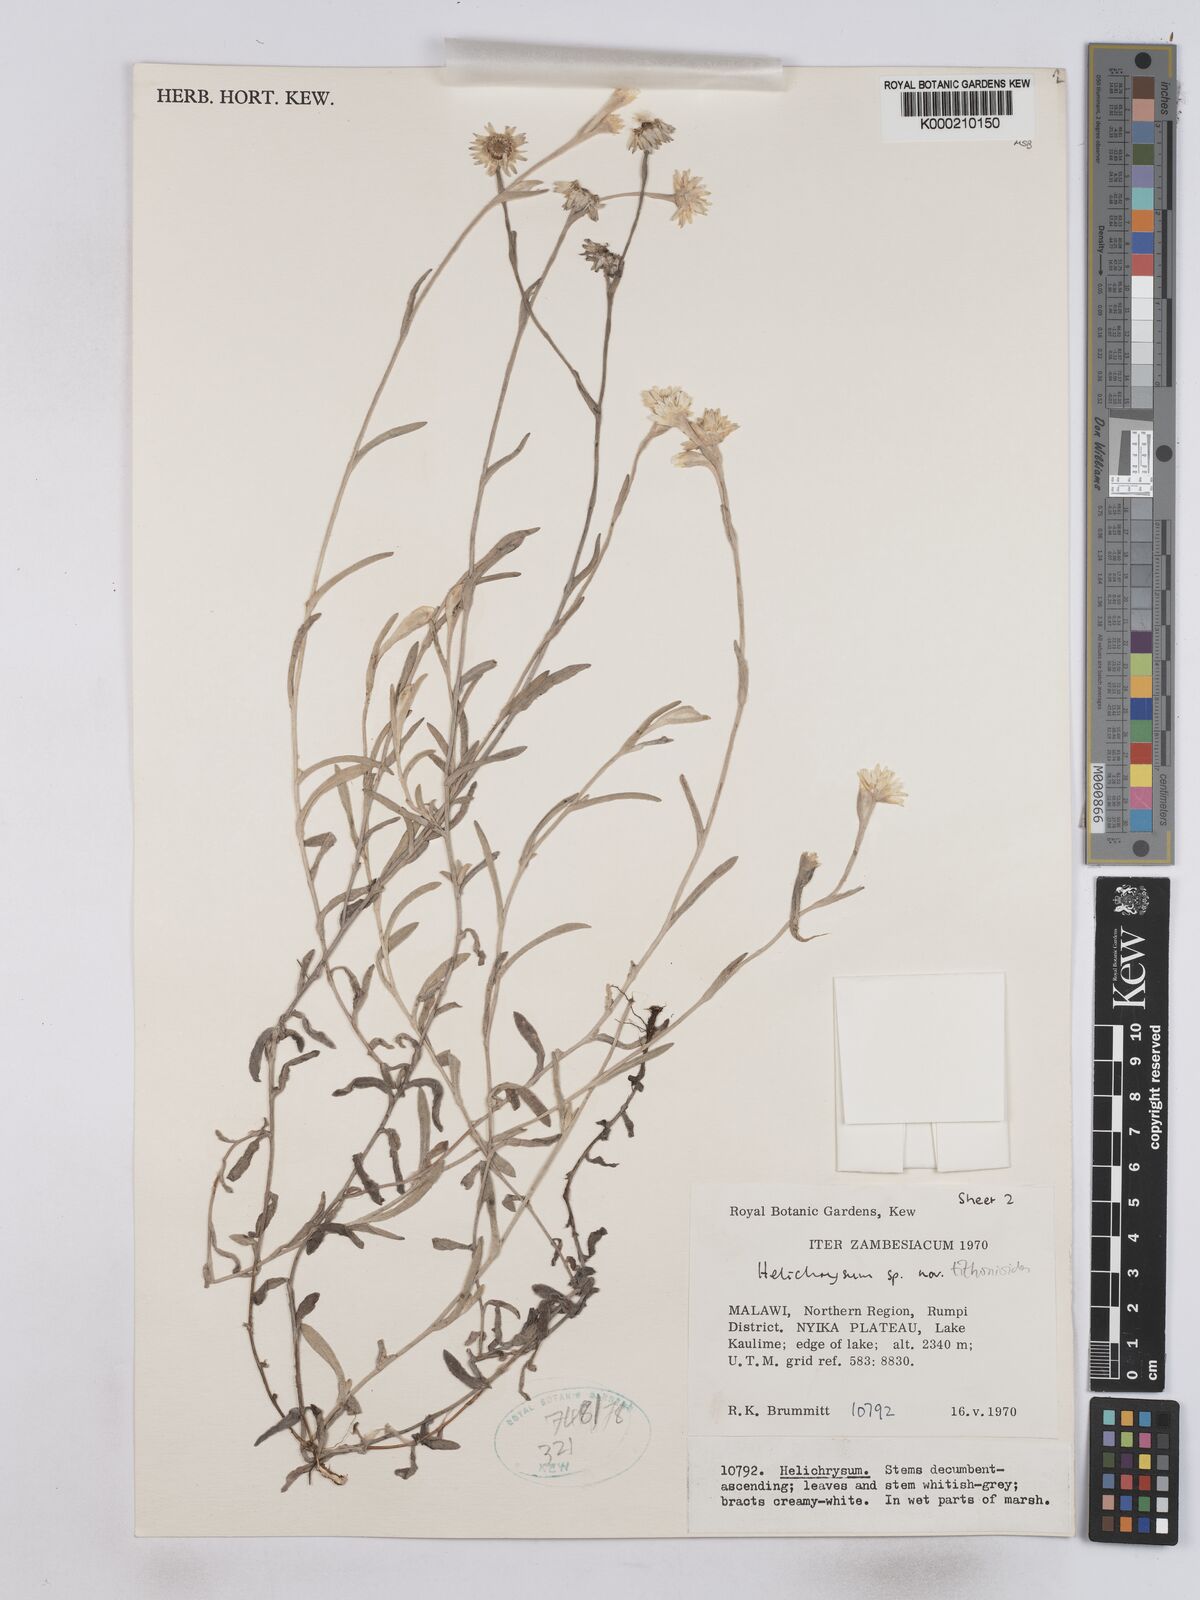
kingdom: Plantae
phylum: Tracheophyta
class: Magnoliopsida
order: Asterales
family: Asteraceae
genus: Helichrysum
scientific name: Helichrysum tithonioides
